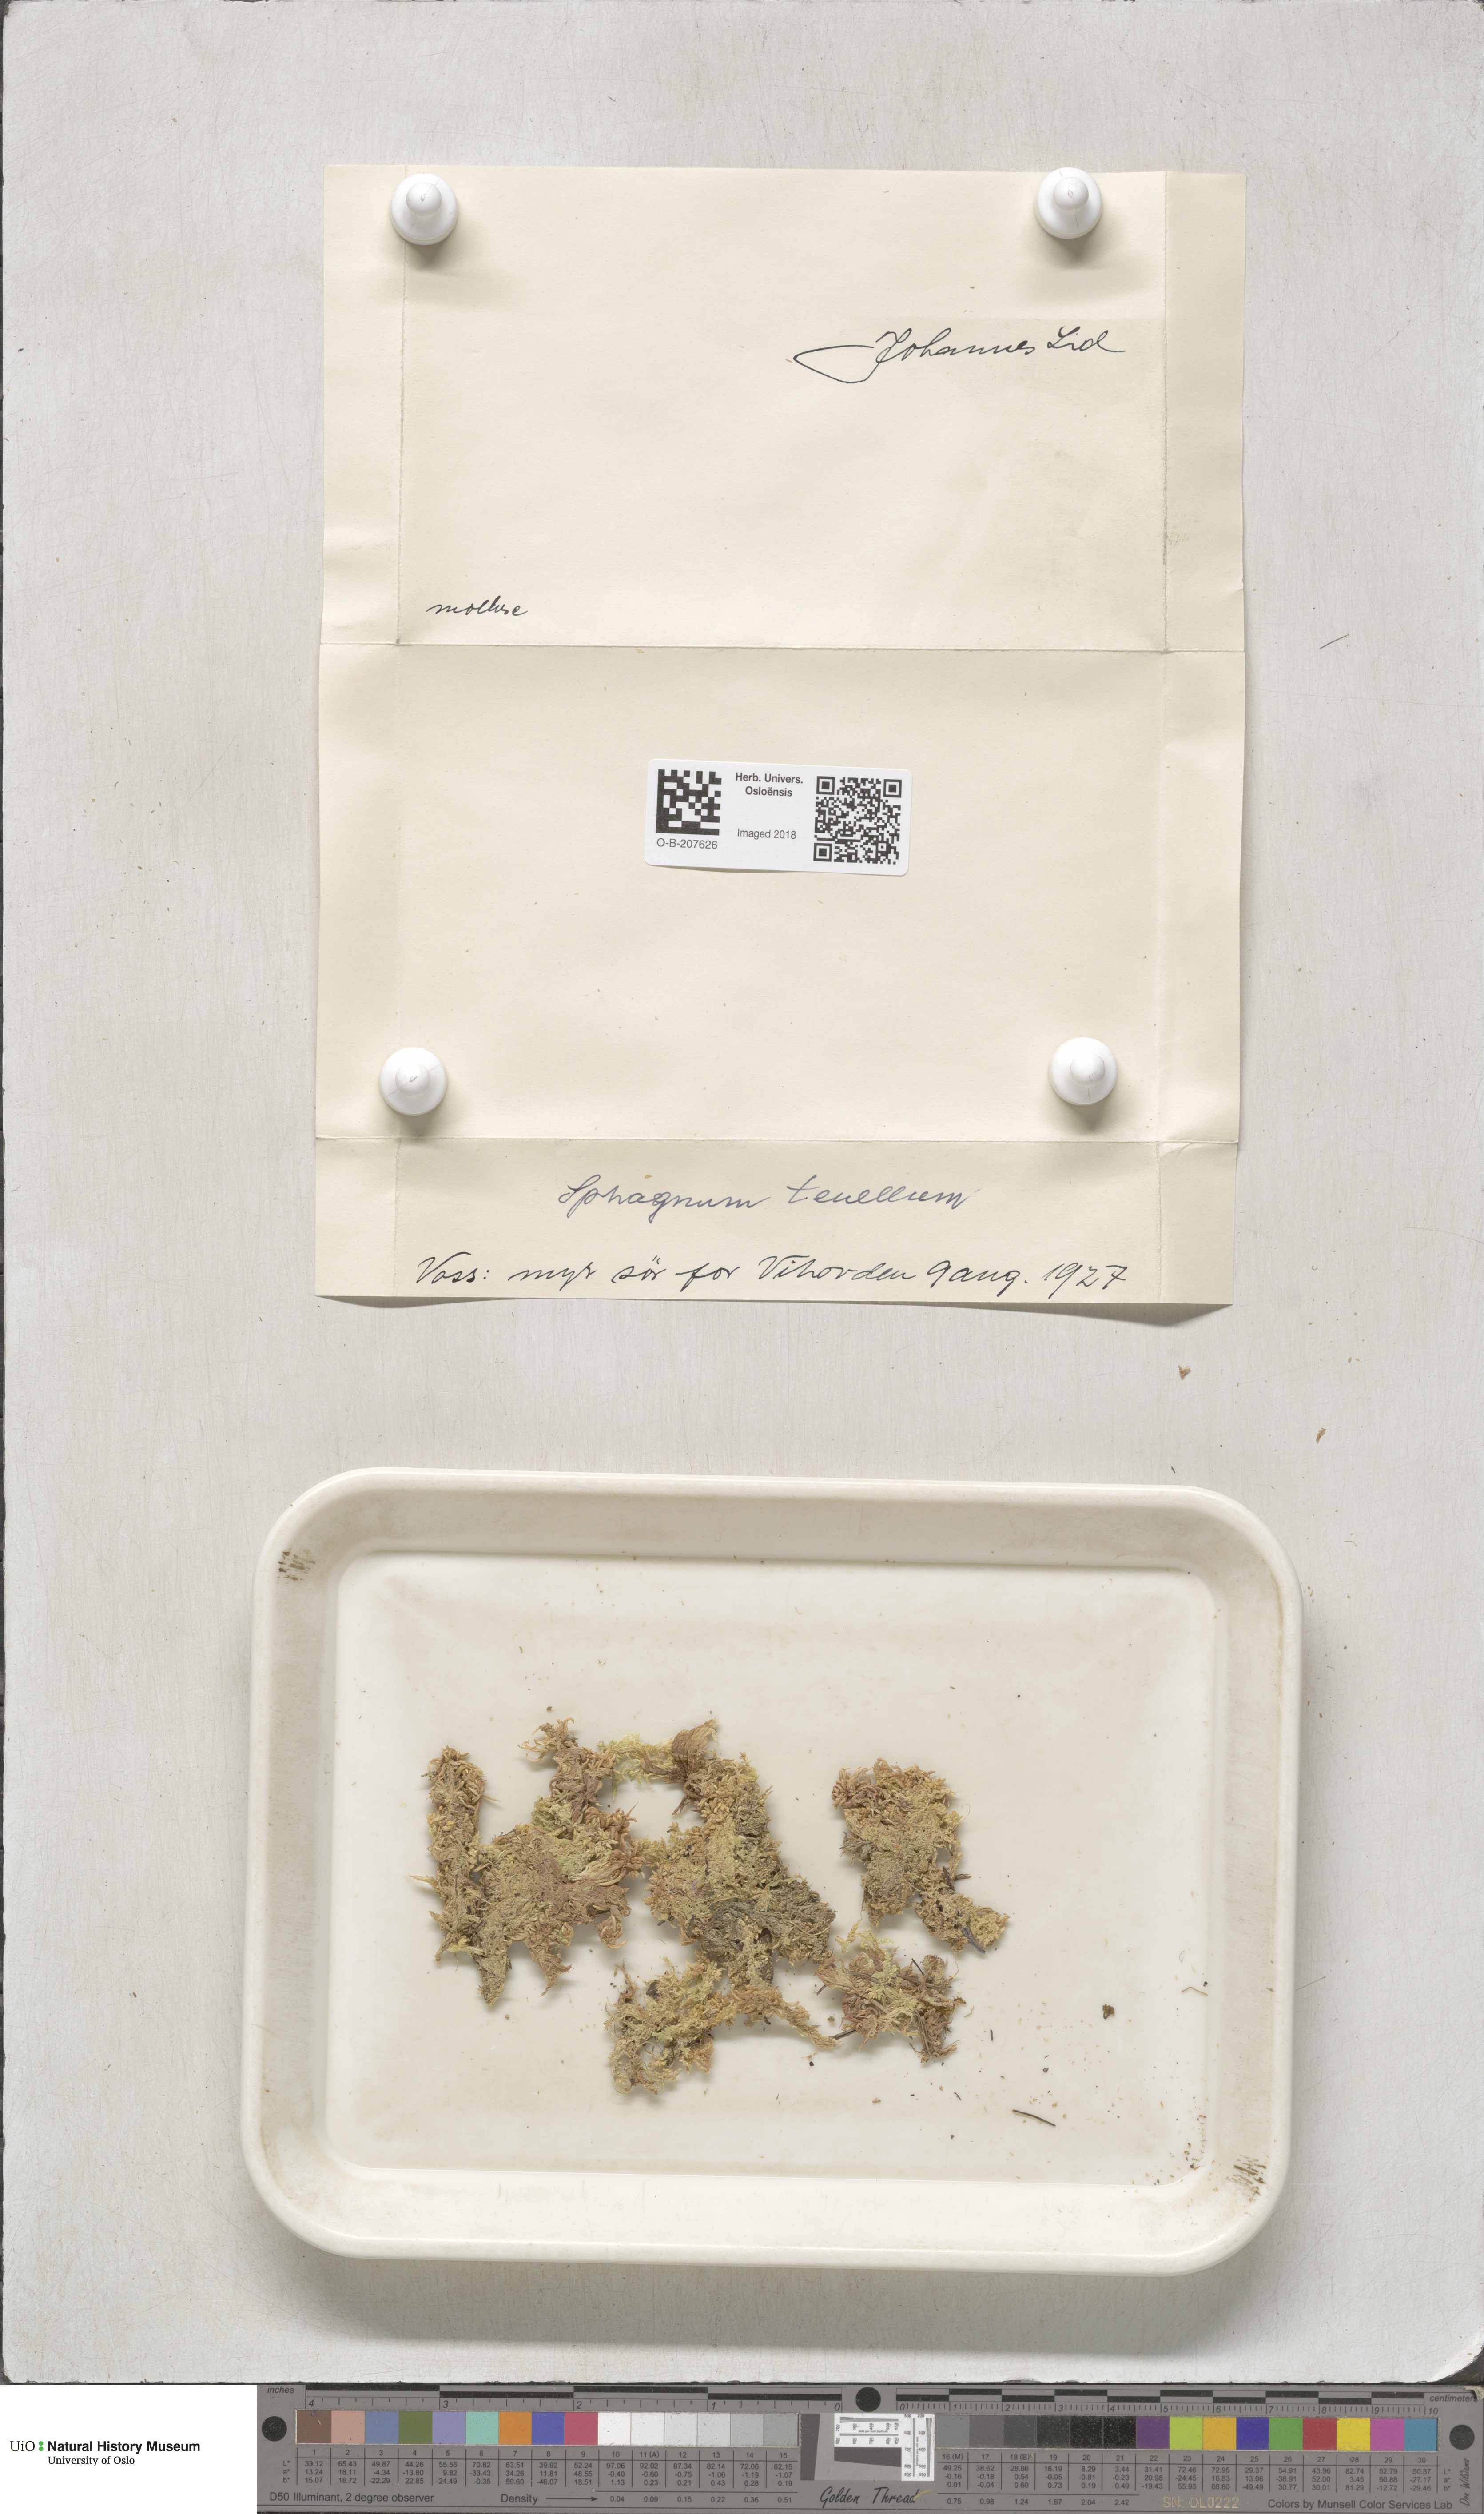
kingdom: Plantae
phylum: Bryophyta
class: Sphagnopsida
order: Sphagnales
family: Sphagnaceae
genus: Sphagnum
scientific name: Sphagnum tenellum
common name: Soft bog-moss
